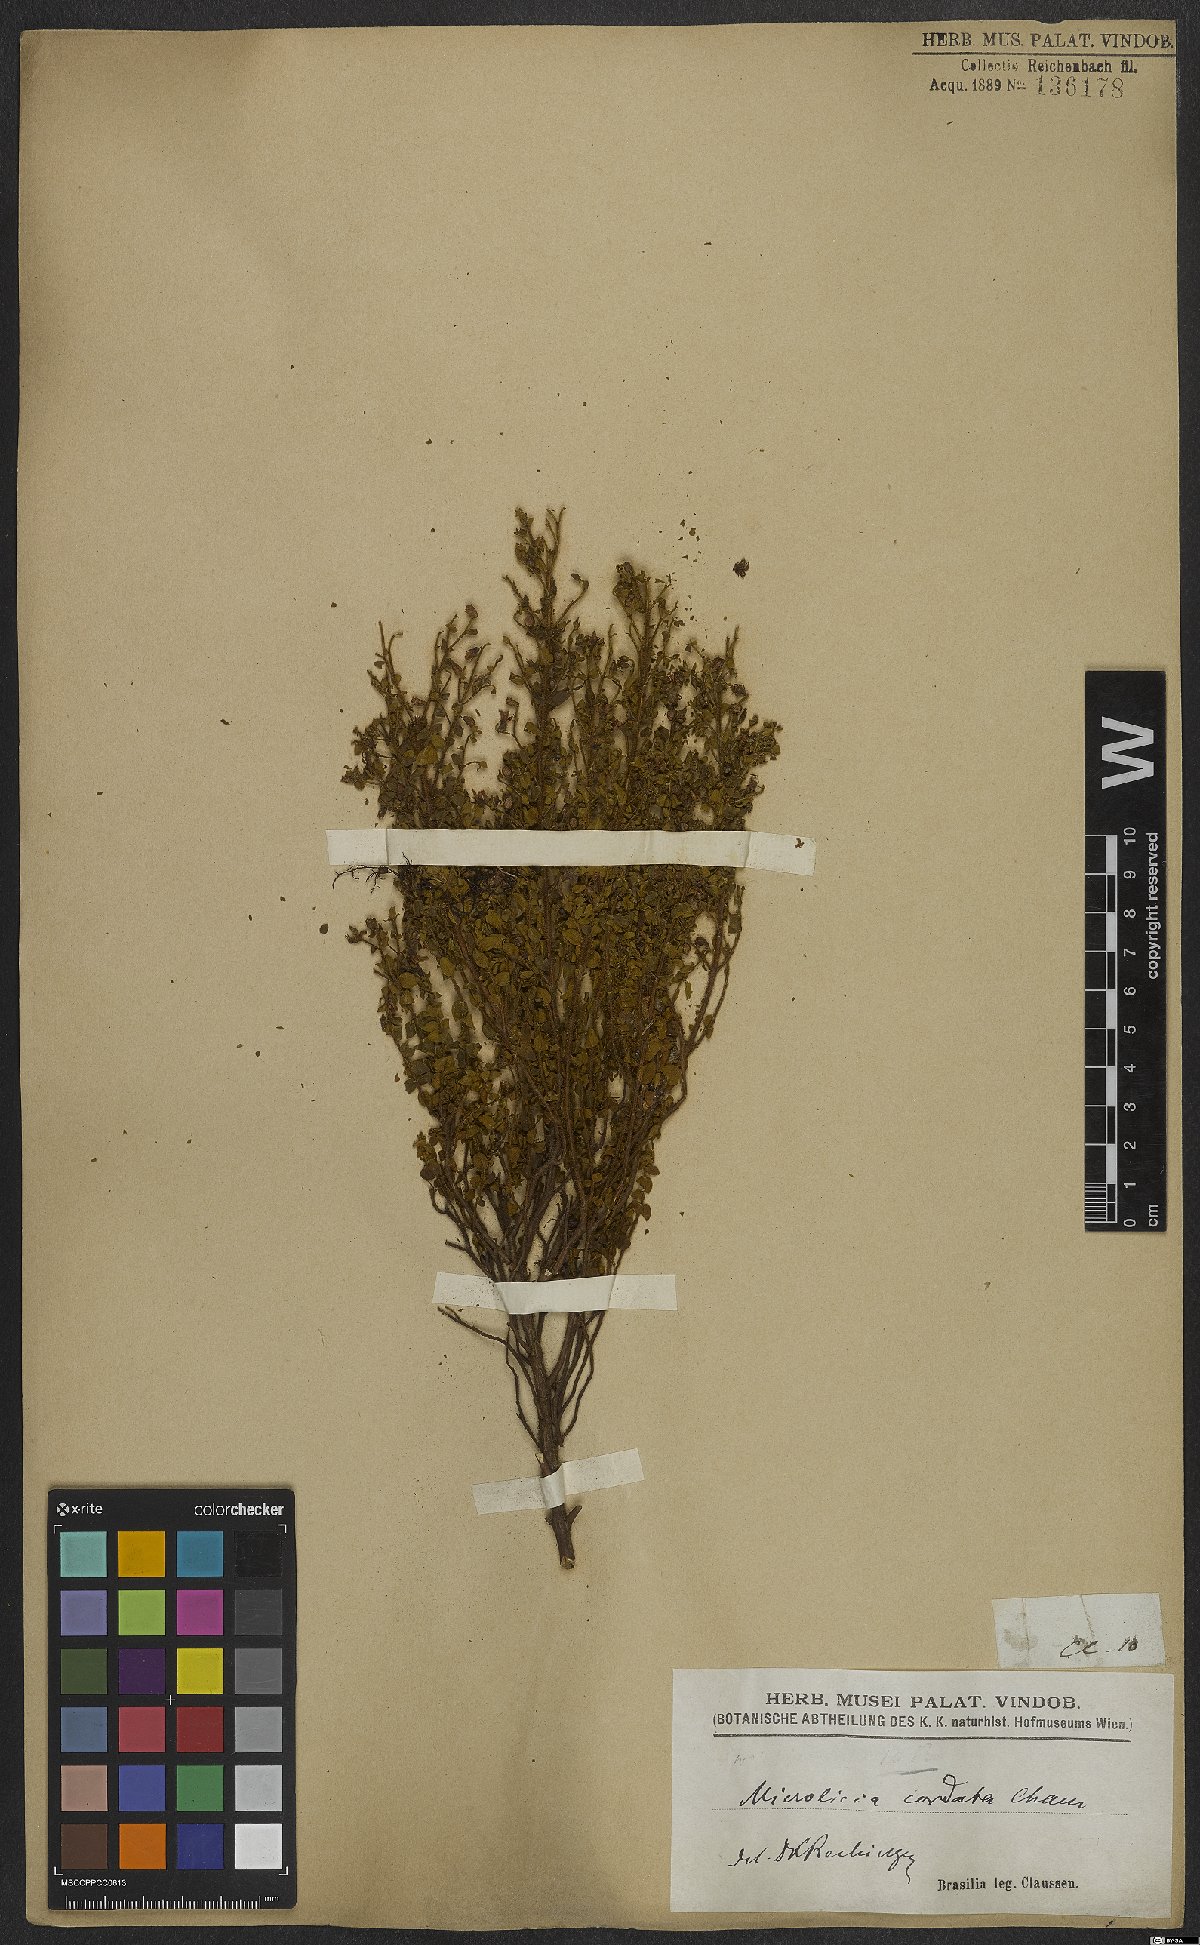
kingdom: Plantae
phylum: Tracheophyta
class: Magnoliopsida
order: Myrtales
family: Melastomataceae
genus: Microlicia
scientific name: Microlicia cordata
